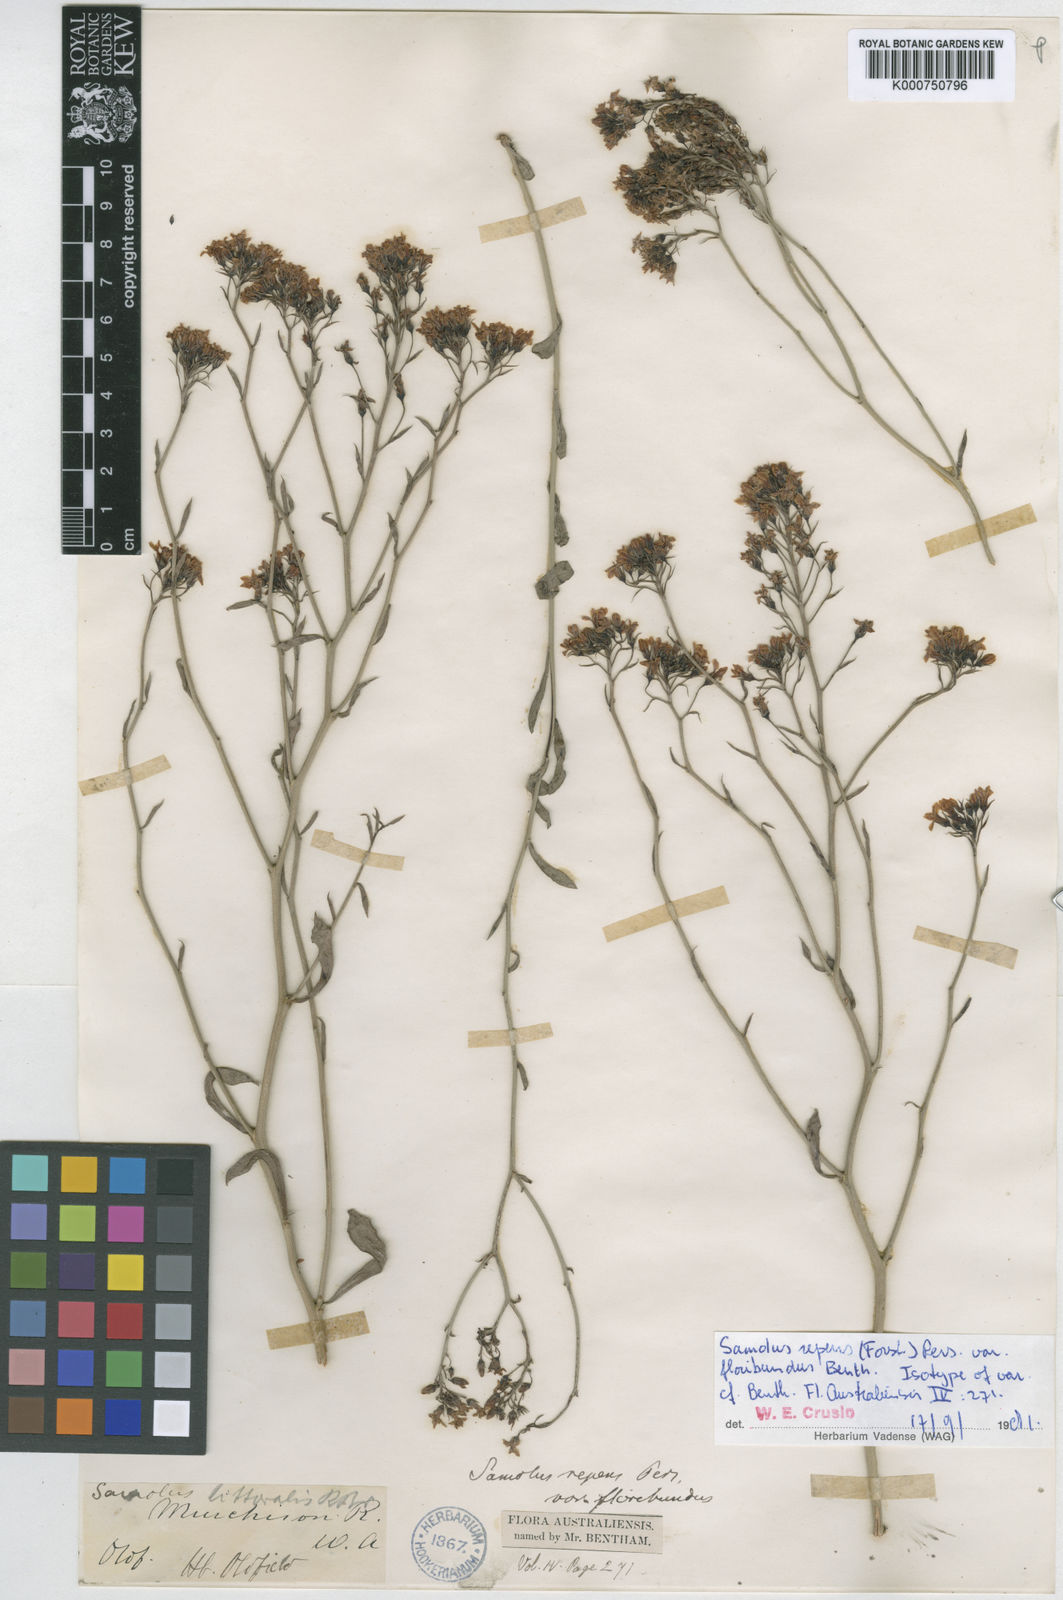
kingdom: Plantae
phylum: Tracheophyta
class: Magnoliopsida
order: Ericales
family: Primulaceae
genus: Samolus
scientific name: Samolus repens
